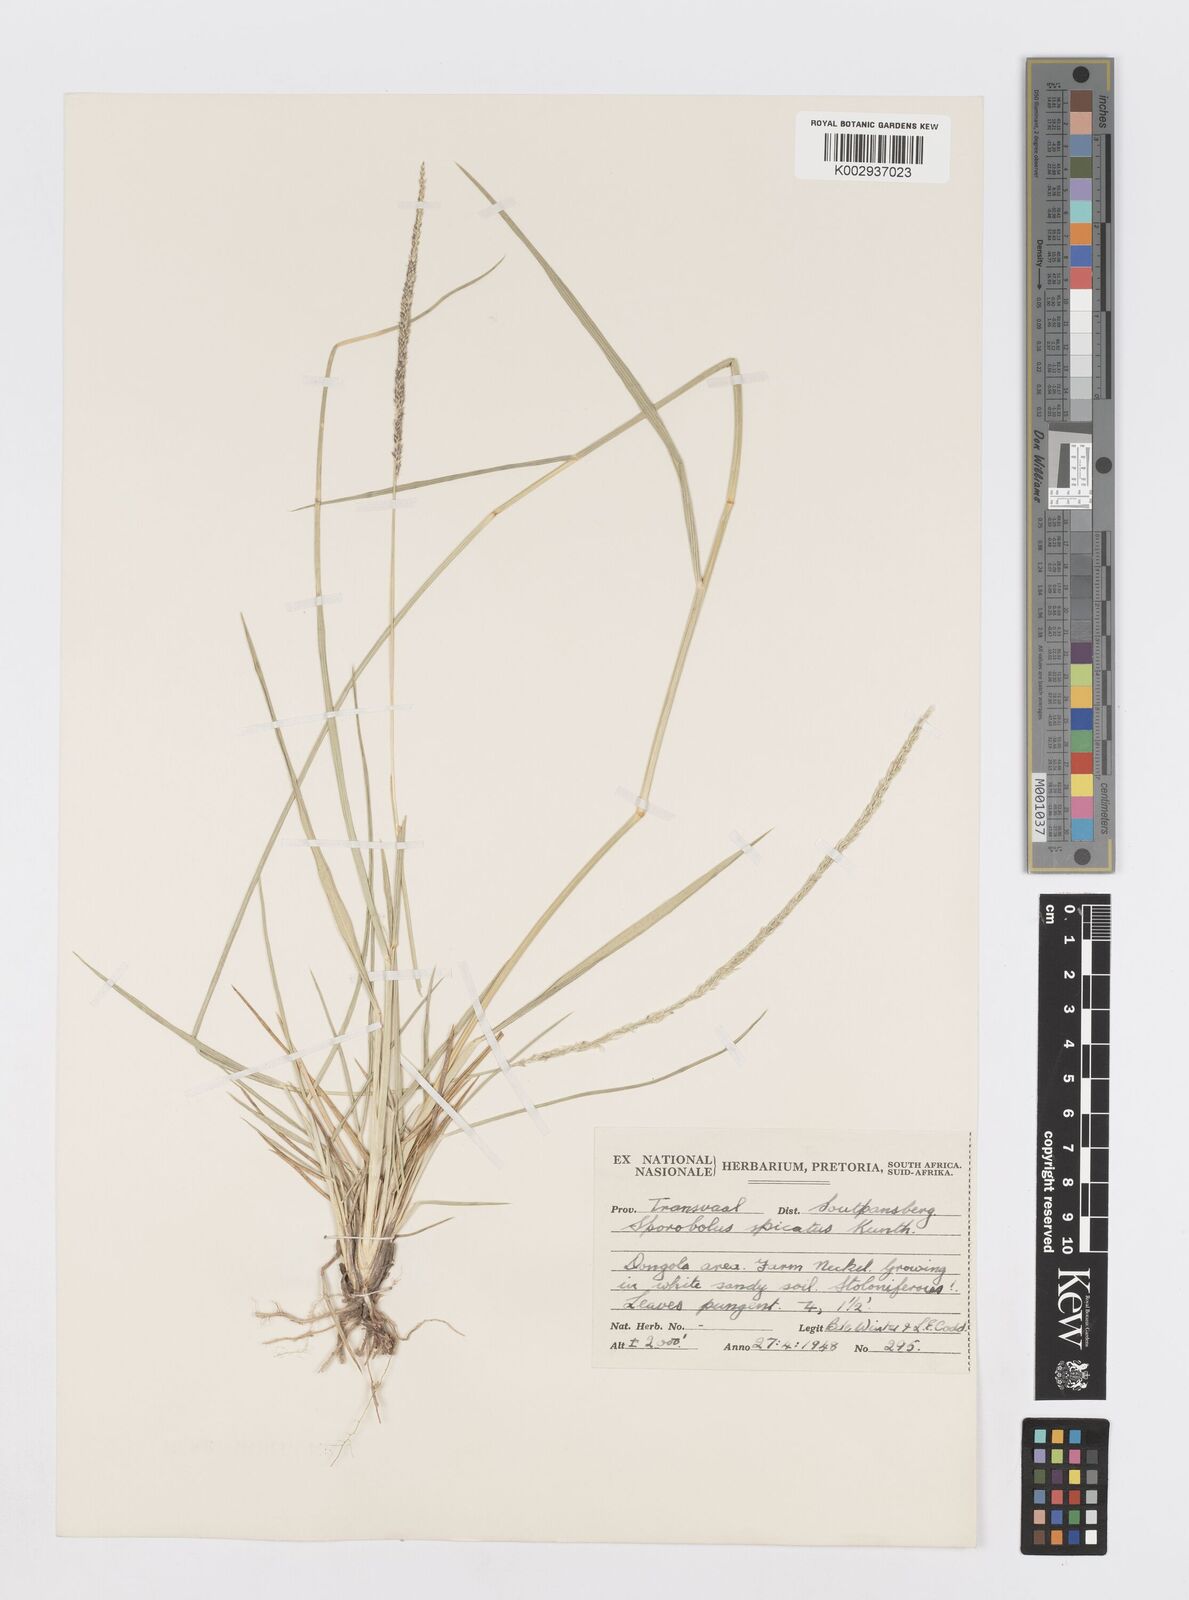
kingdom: Plantae
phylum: Tracheophyta
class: Liliopsida
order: Poales
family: Poaceae
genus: Sporobolus
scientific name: Sporobolus spicatus
